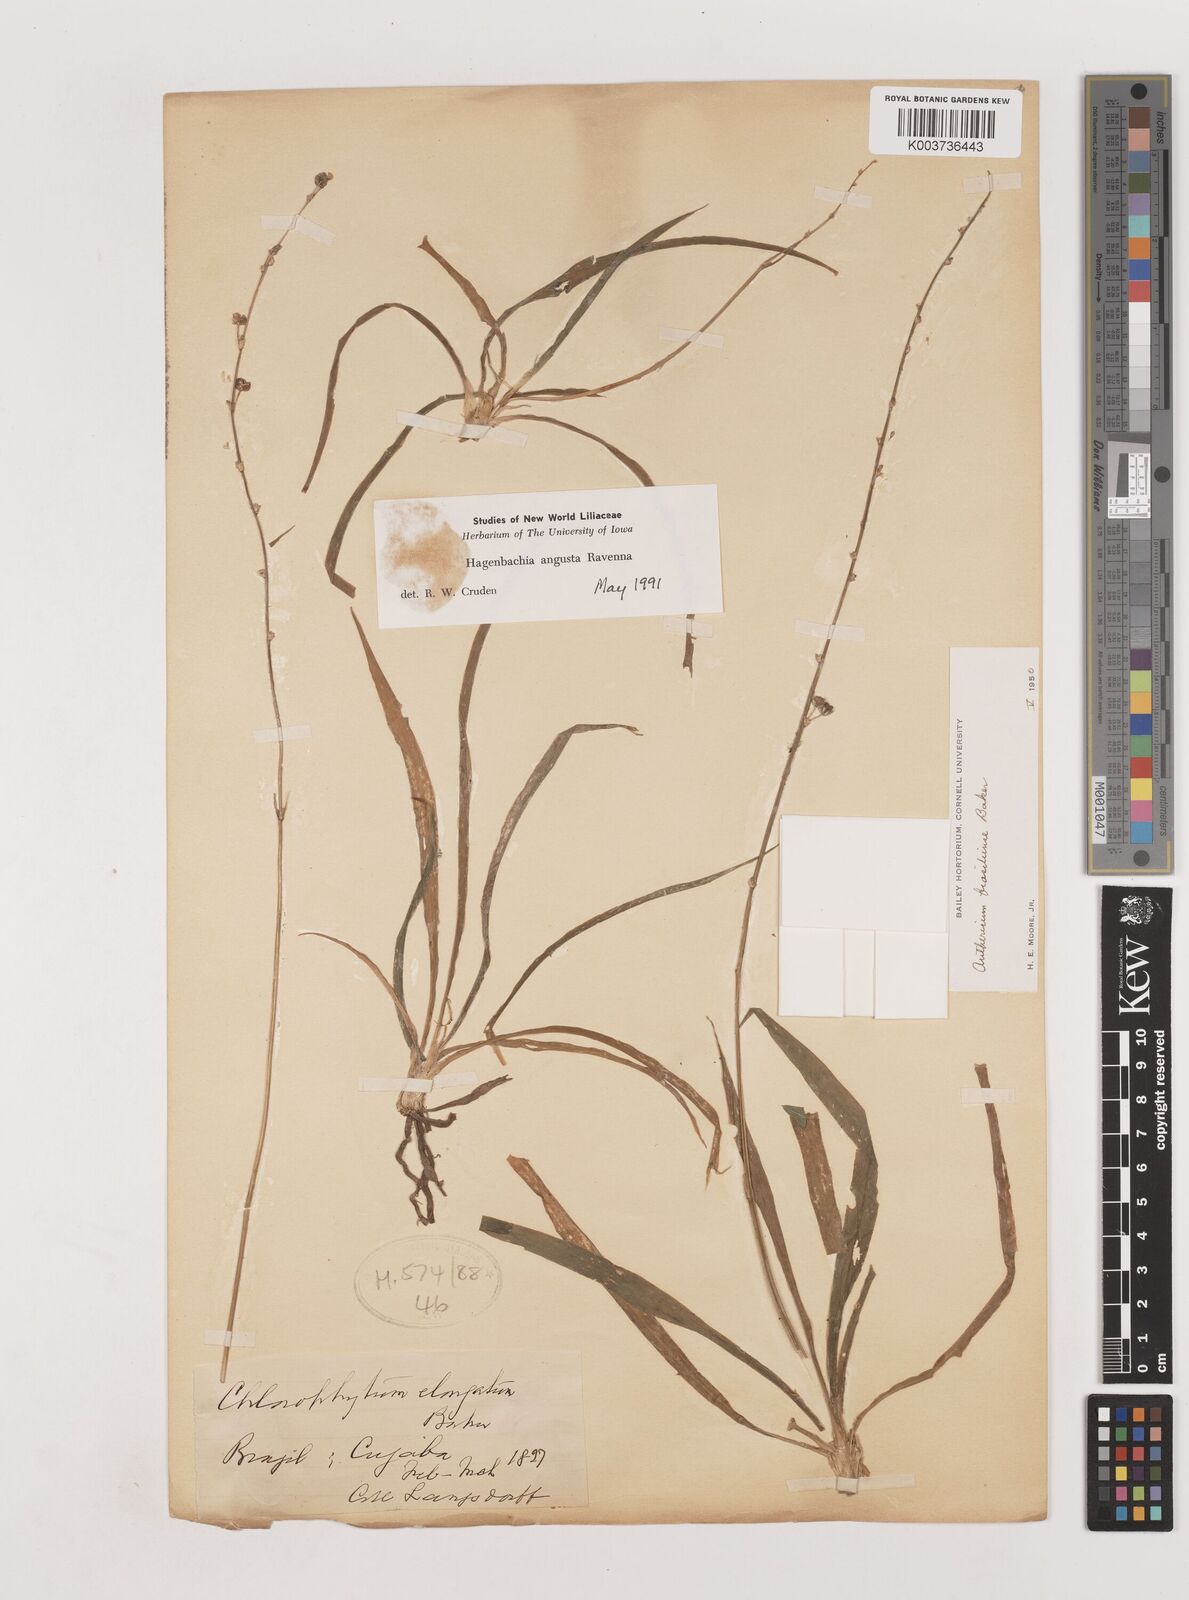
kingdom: Plantae
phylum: Tracheophyta
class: Liliopsida
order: Asparagales
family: Asparagaceae
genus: Hagenbachia
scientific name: Hagenbachia matogrossensis
